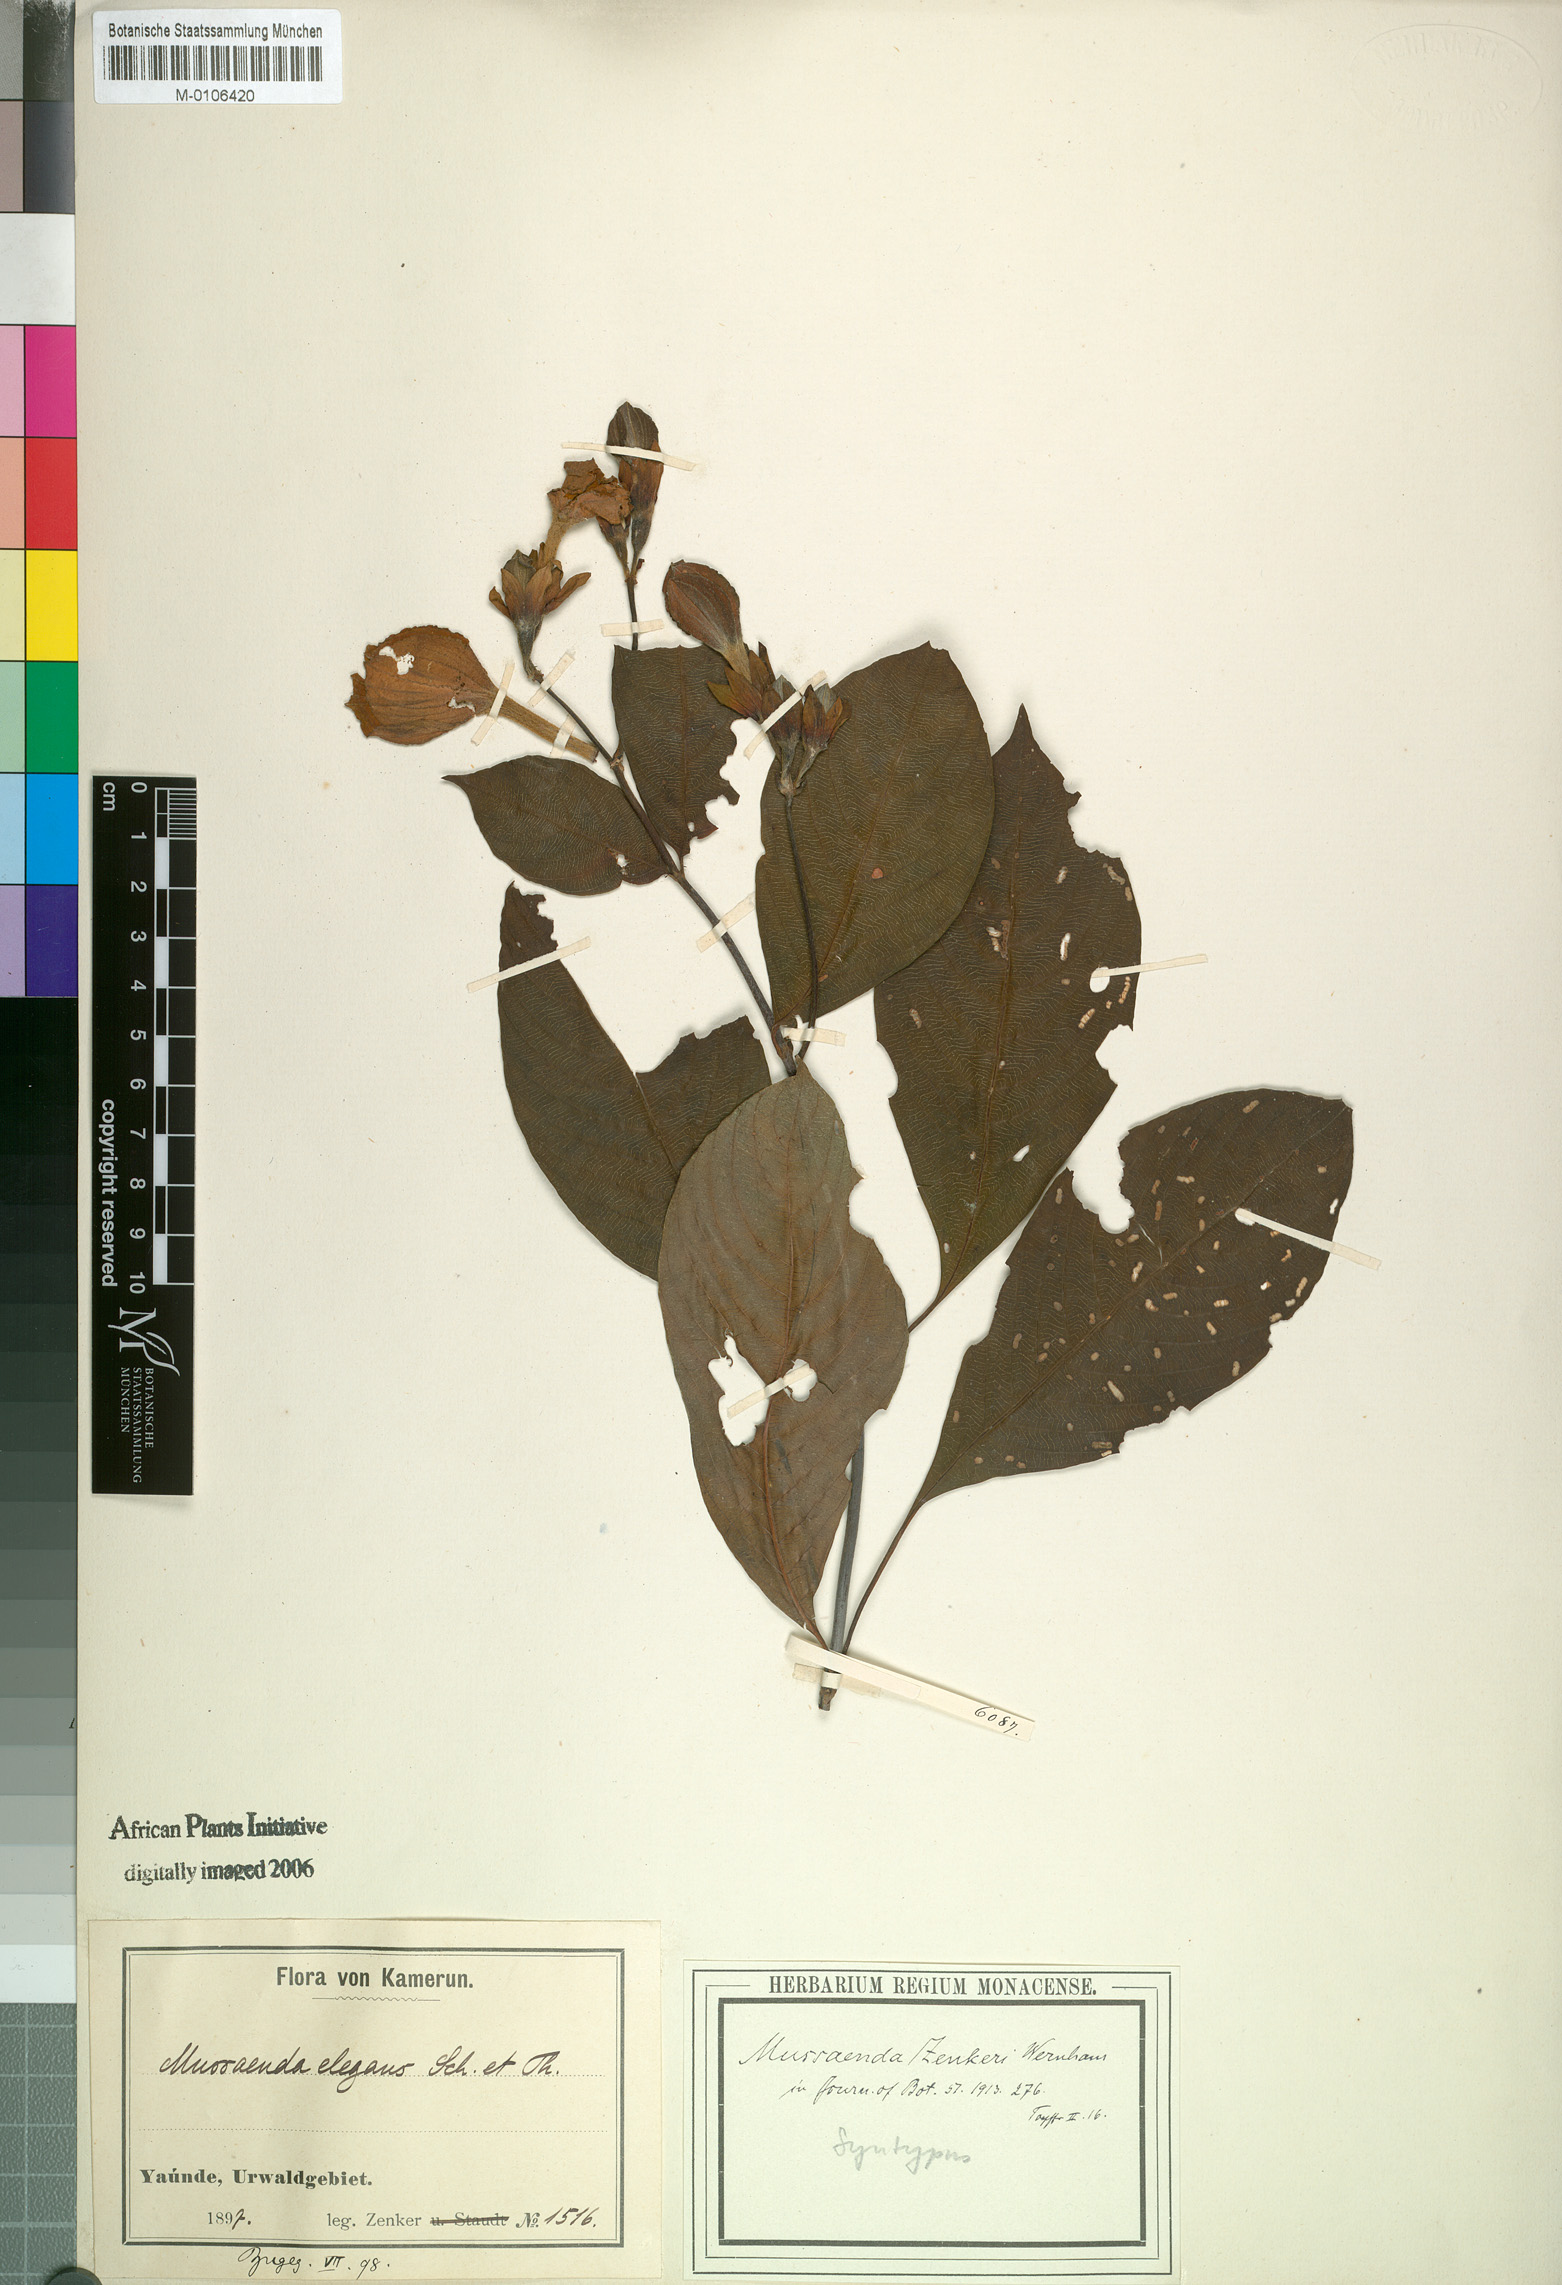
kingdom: Plantae
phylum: Tracheophyta
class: Magnoliopsida
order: Gentianales
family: Rubiaceae
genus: Mussaenda
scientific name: Mussaenda zenkeri
